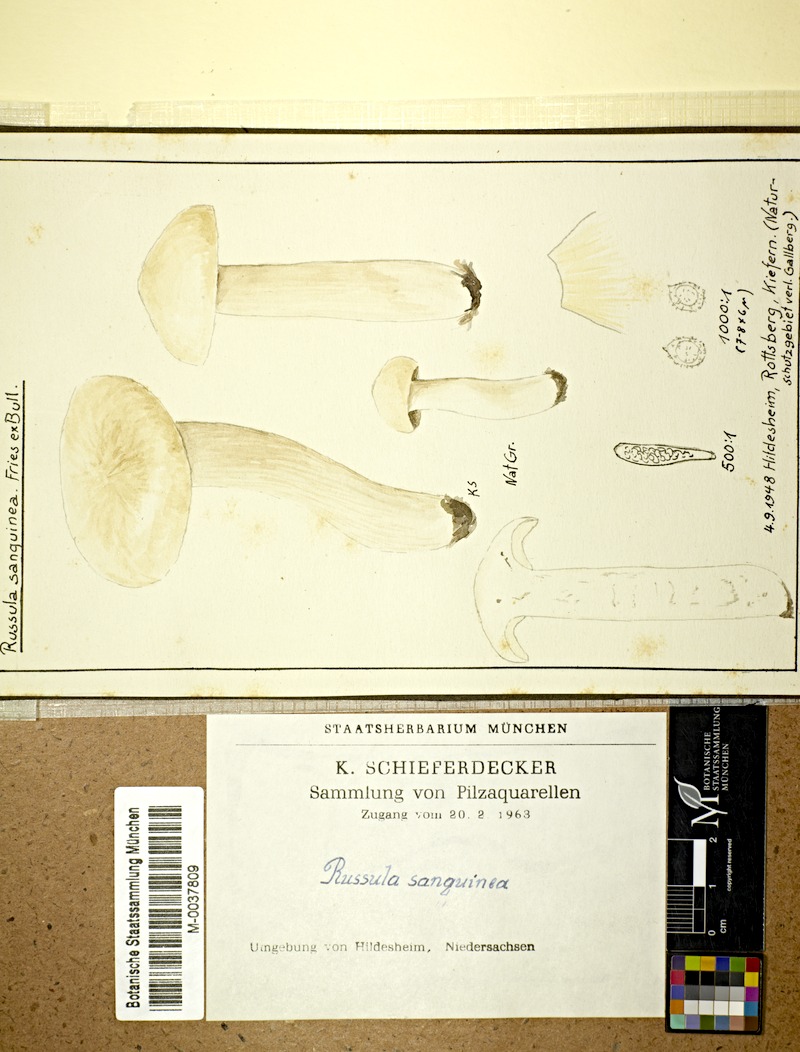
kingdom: Fungi
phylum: Basidiomycota
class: Agaricomycetes
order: Russulales
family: Russulaceae
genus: Russula
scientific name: Russula sanguinea
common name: Bloody brittlegill
